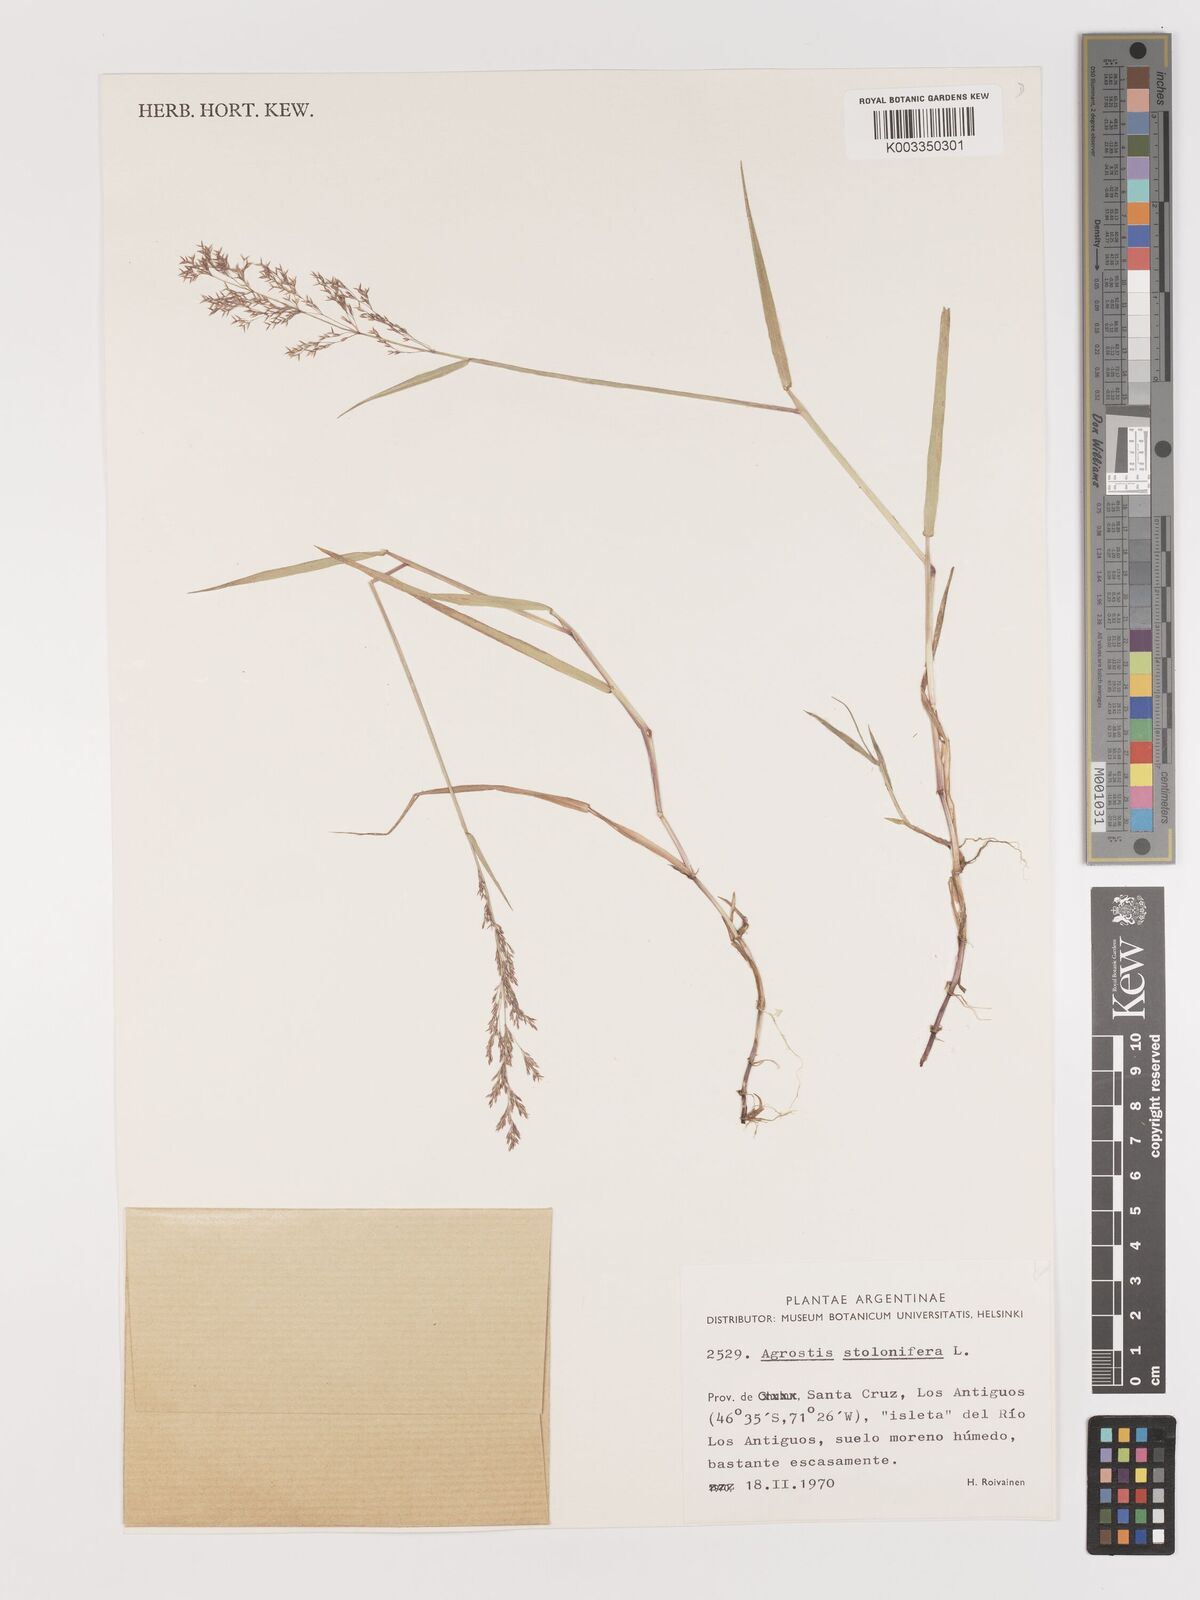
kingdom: Plantae
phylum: Tracheophyta
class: Liliopsida
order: Poales
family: Poaceae
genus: Agrostis
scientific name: Agrostis stolonifera
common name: Creeping bentgrass
